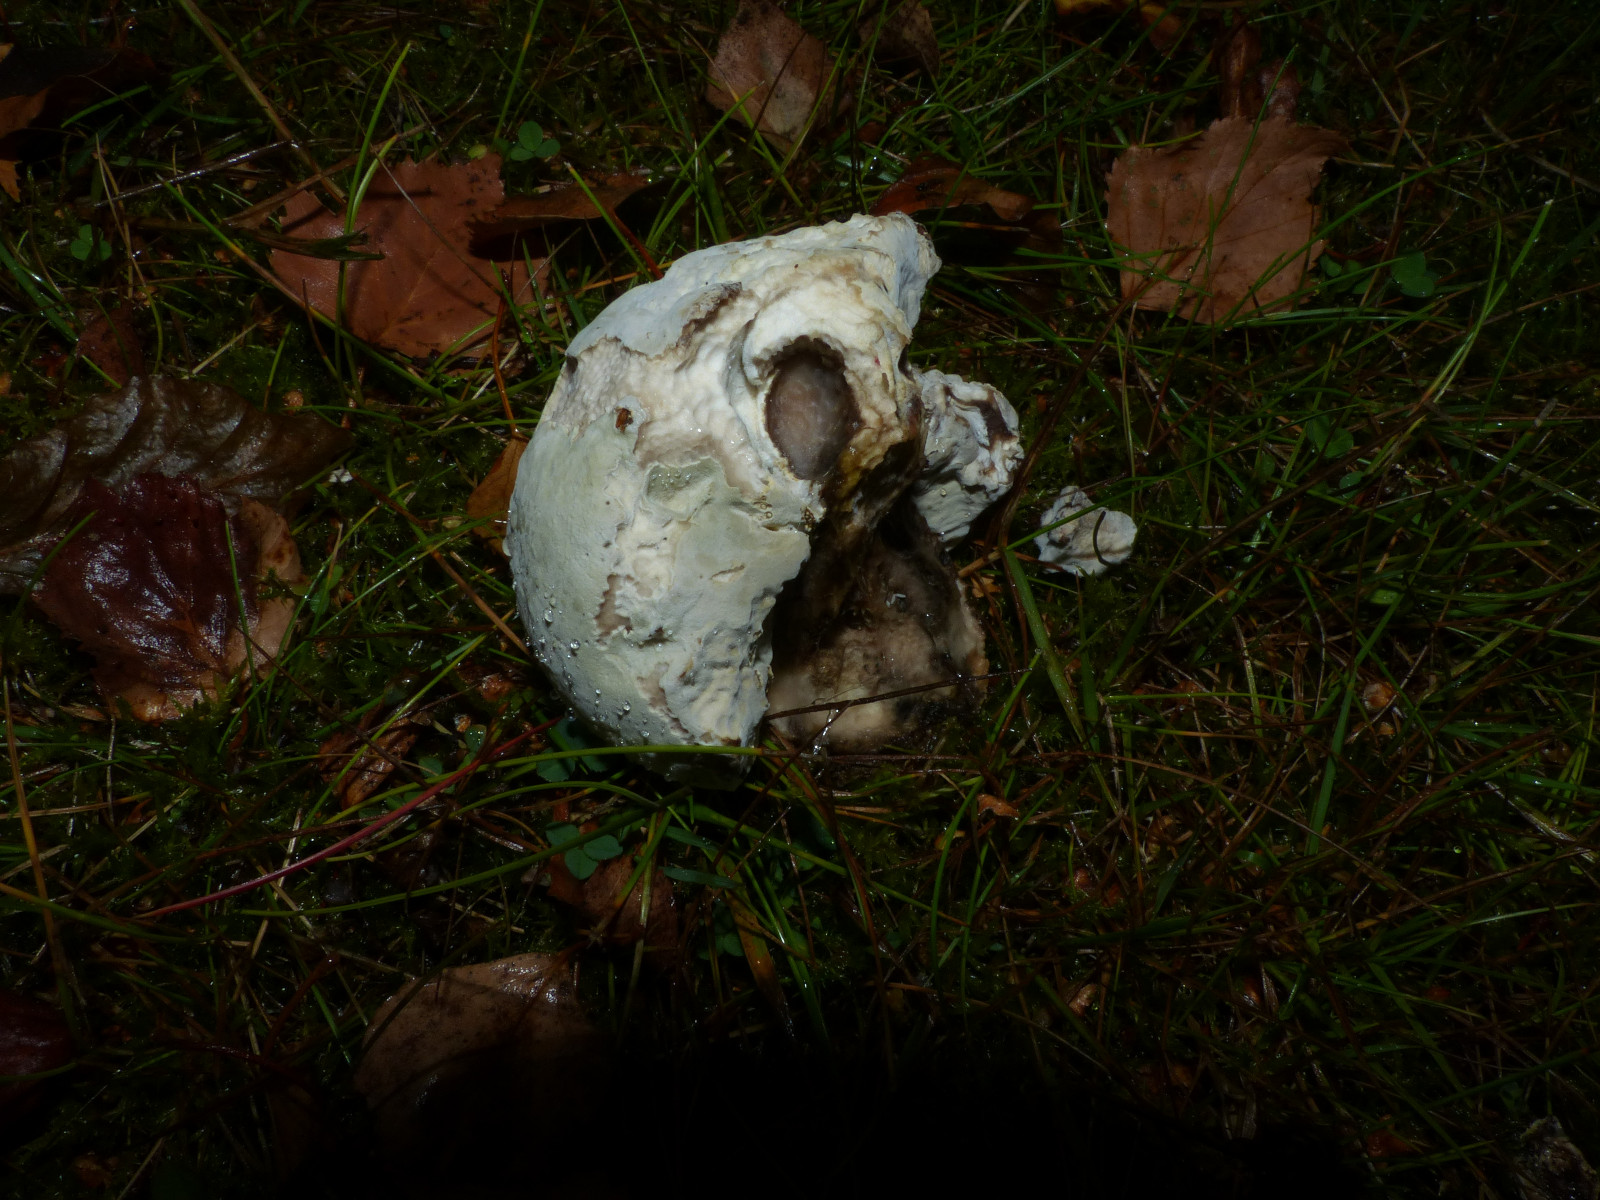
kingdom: Fungi
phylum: Ascomycota
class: Sordariomycetes
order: Hypocreales
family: Hypocreaceae
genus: Hypomyces
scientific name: Hypomyces
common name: snylteskorpe
